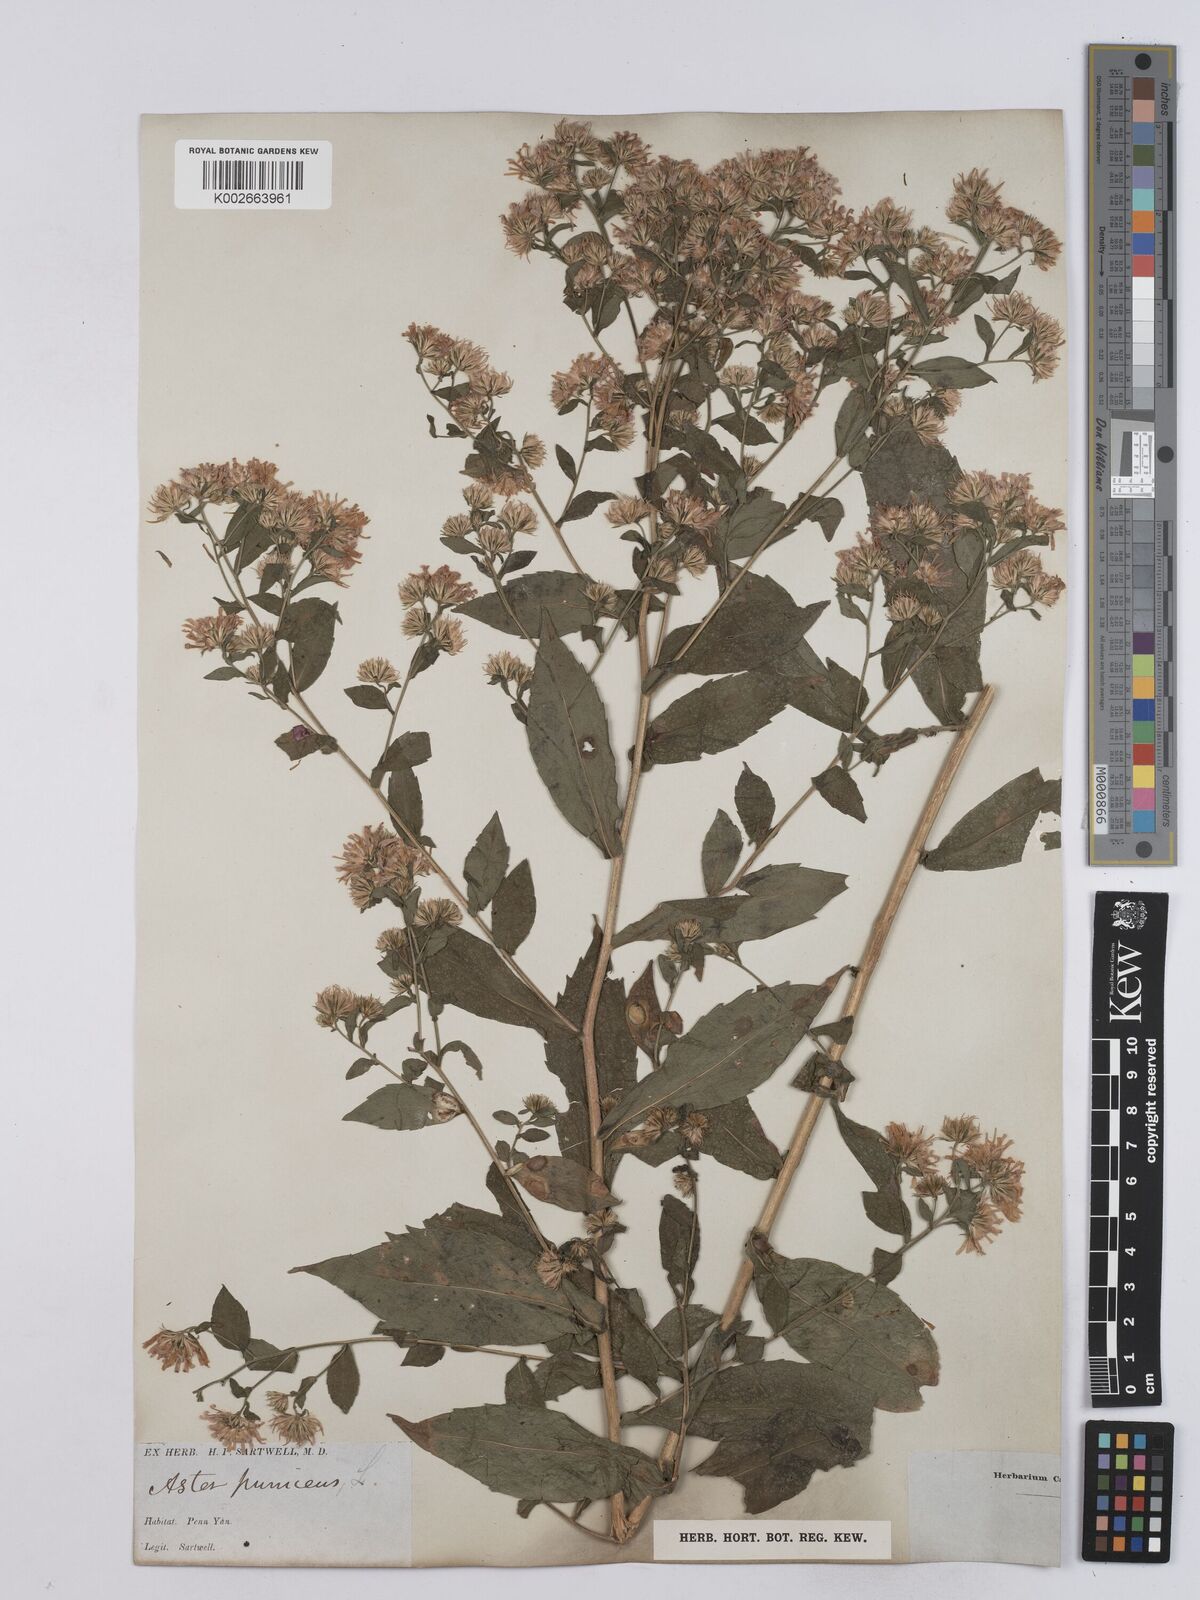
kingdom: Plantae
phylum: Tracheophyta
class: Magnoliopsida
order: Asterales
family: Asteraceae
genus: Symphyotrichum
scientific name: Symphyotrichum puniceum
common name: Bog aster
